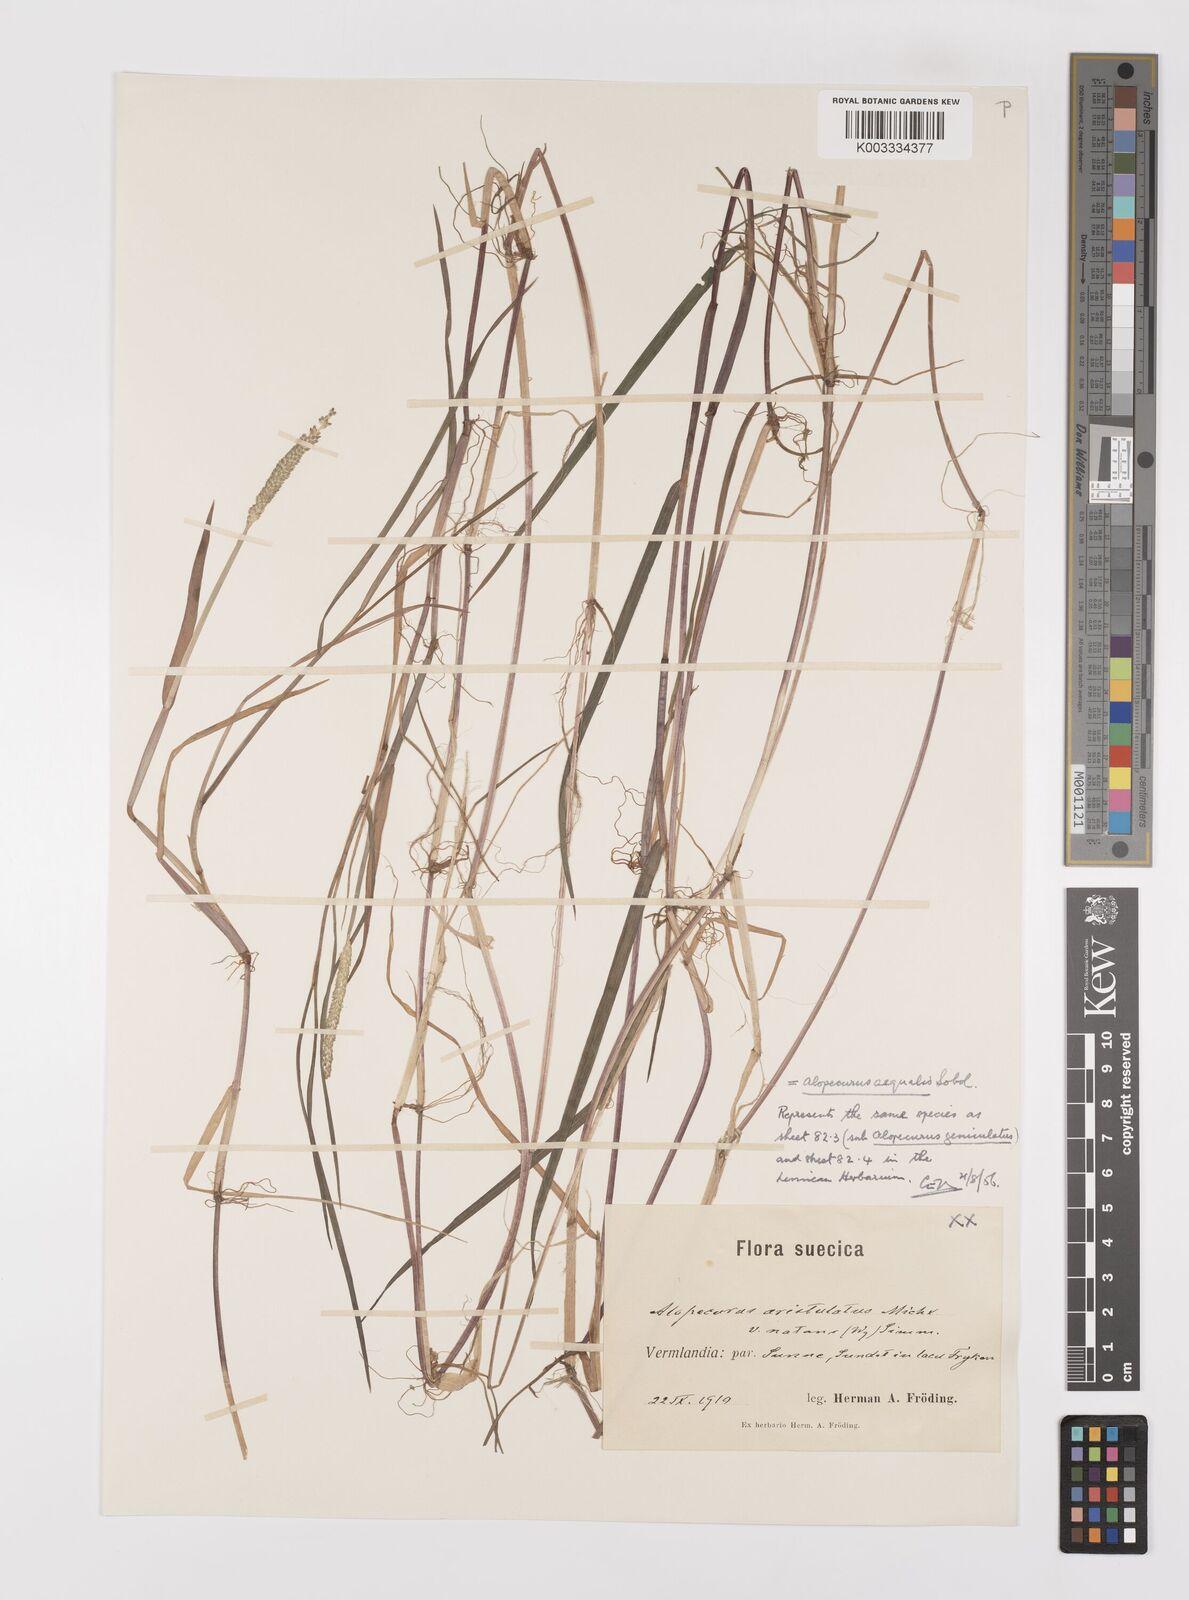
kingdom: Plantae
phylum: Tracheophyta
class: Liliopsida
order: Poales
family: Poaceae
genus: Alopecurus
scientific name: Alopecurus aequalis
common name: Orange foxtail
